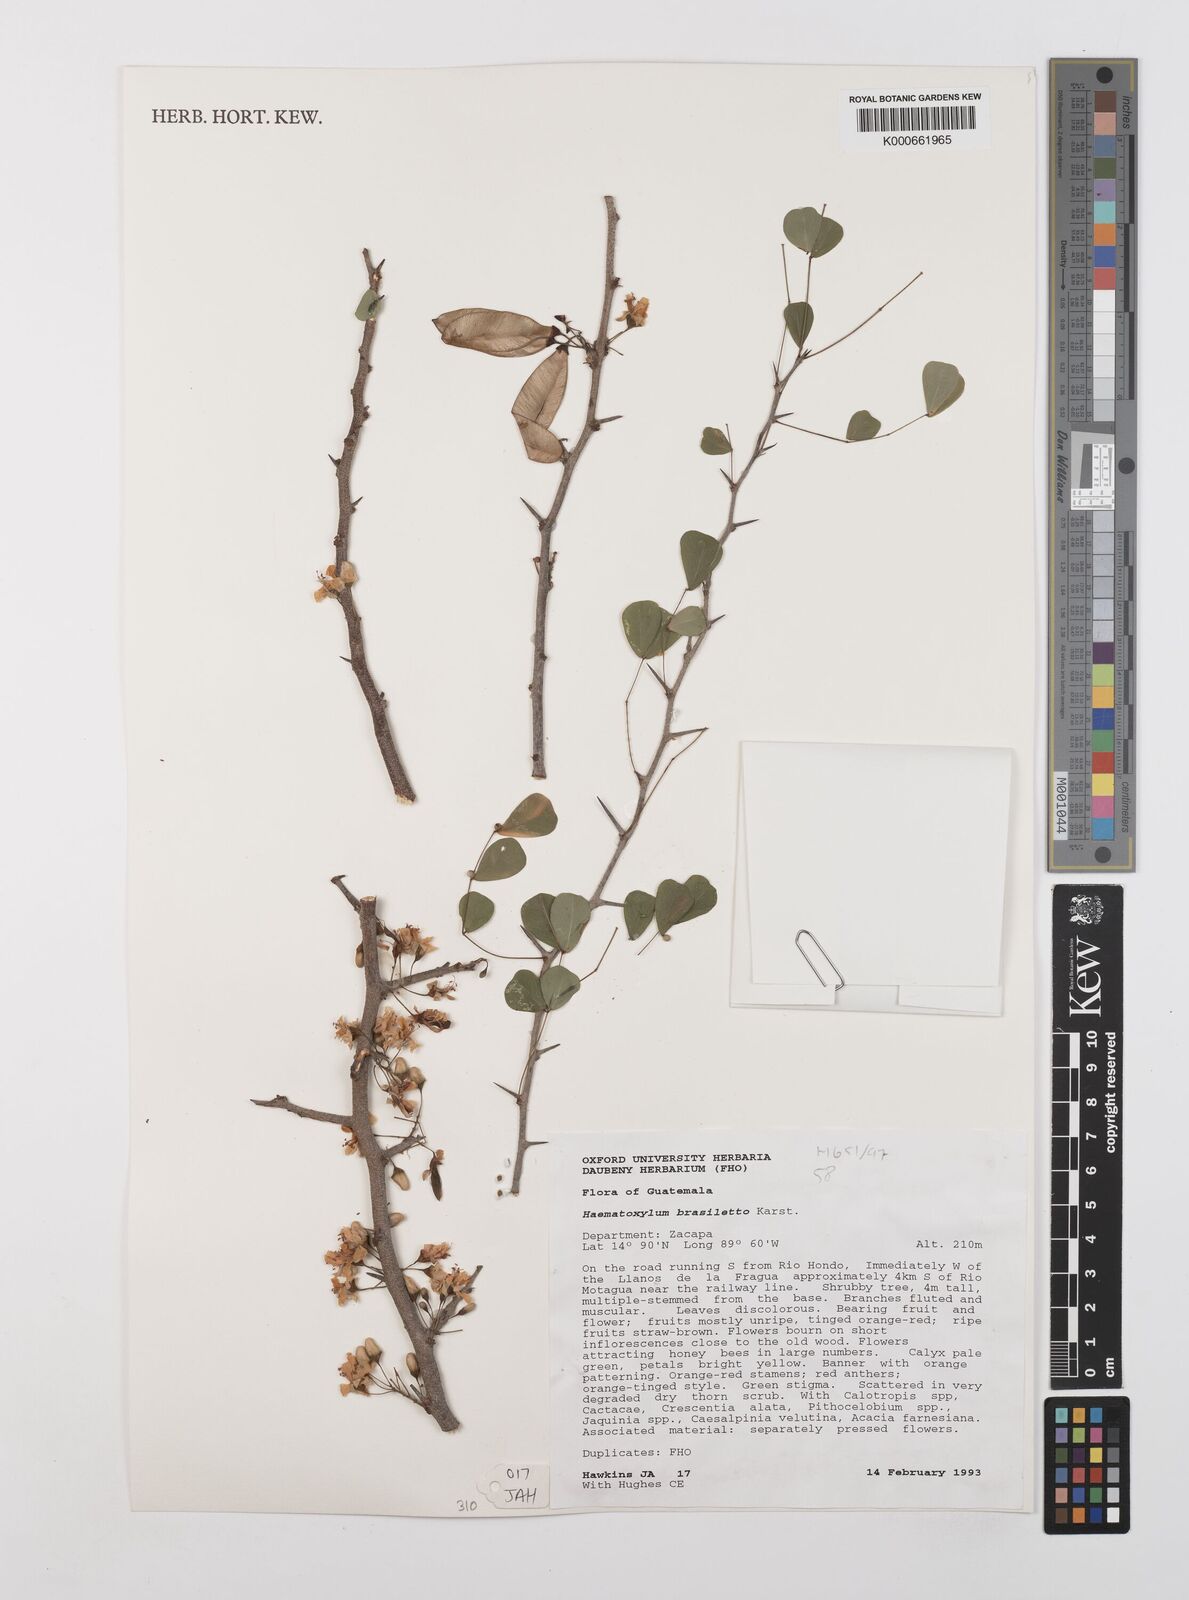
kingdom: Plantae
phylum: Tracheophyta
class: Magnoliopsida
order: Fabales
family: Fabaceae
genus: Haematoxylum
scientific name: Haematoxylum brasiletto
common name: Peachwood
